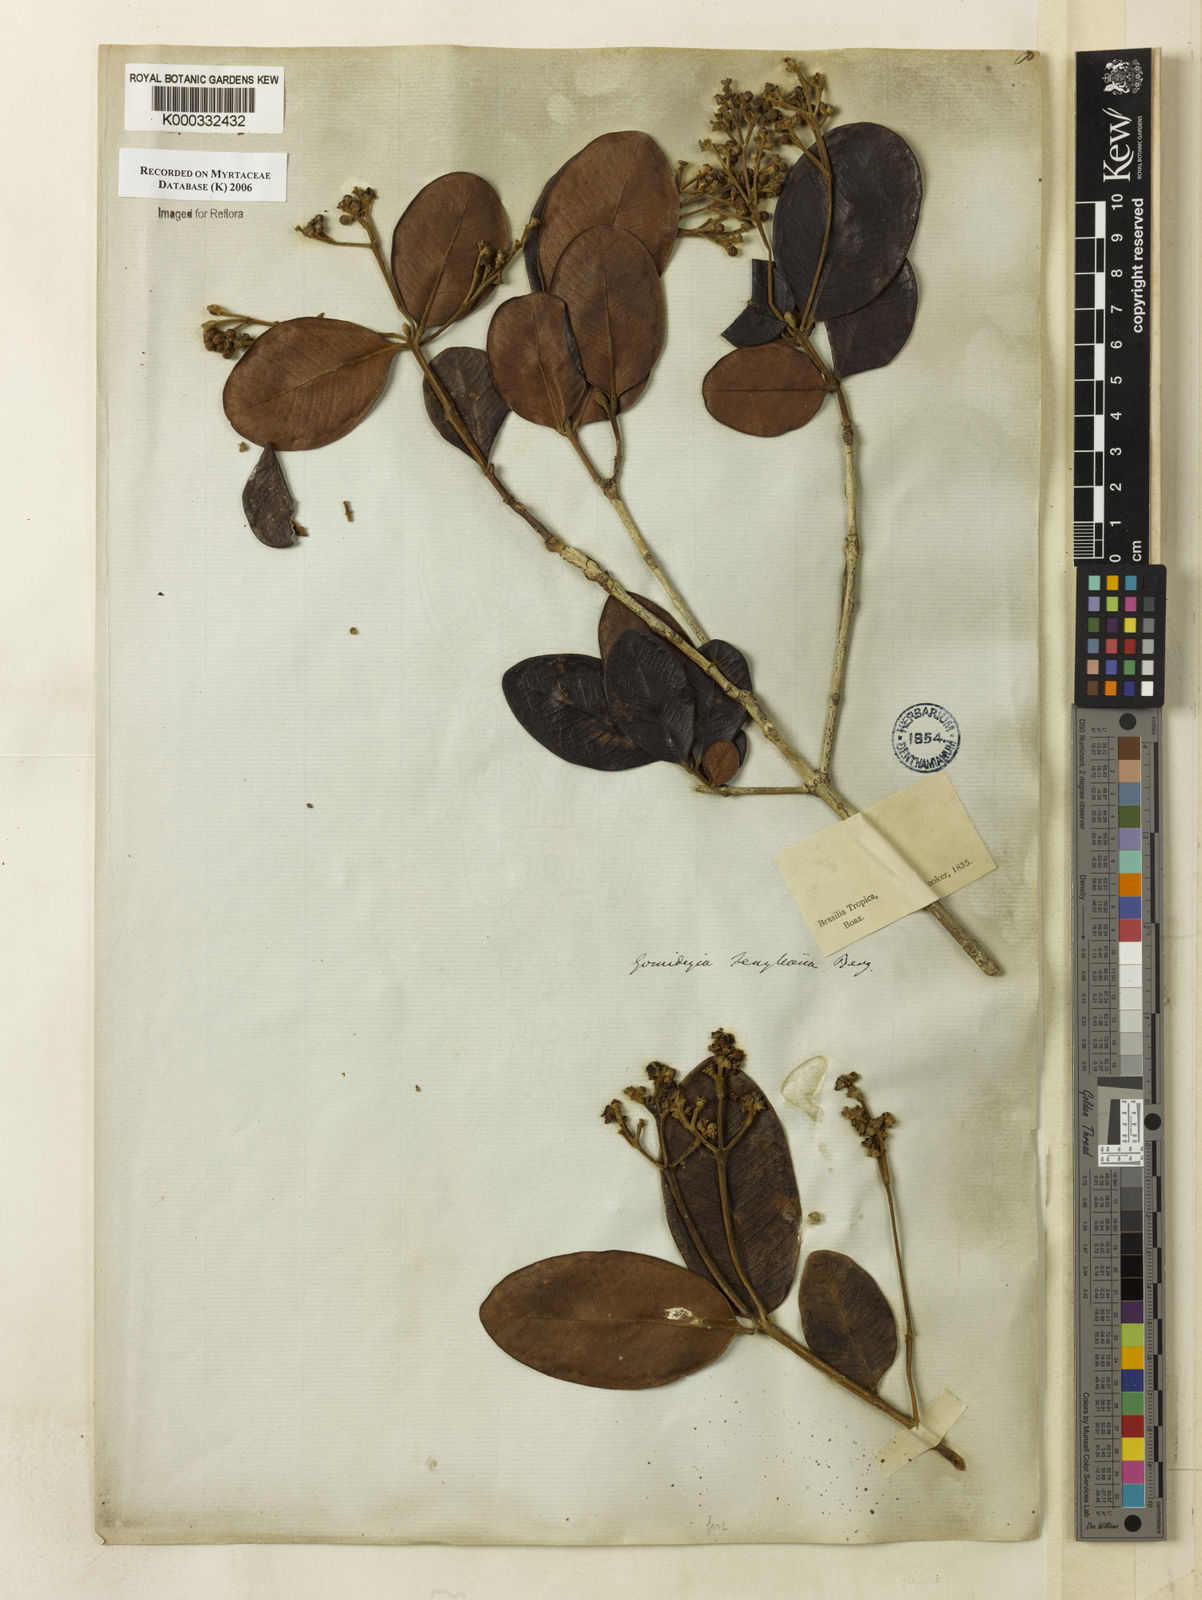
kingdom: Plantae
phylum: Tracheophyta
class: Magnoliopsida
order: Myrtales
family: Myrtaceae
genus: Myrcia
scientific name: Myrcia ilheosensis
